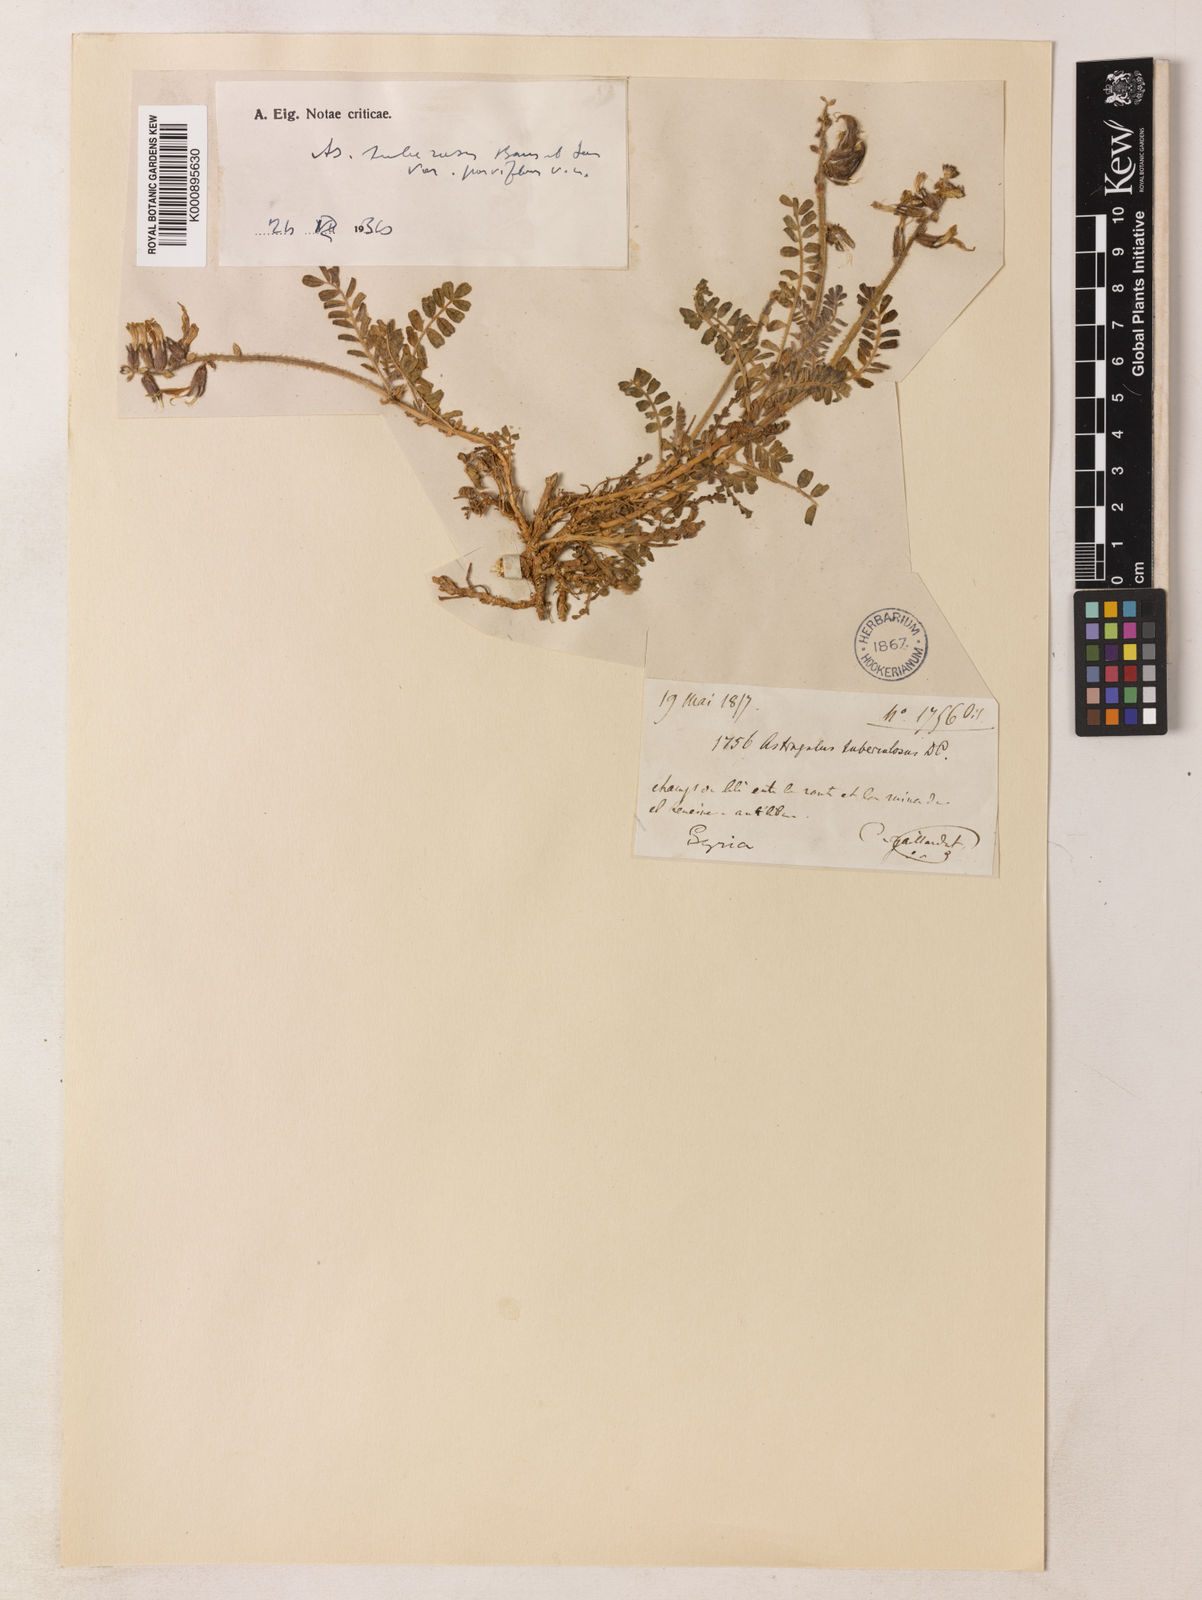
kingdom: Plantae
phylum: Tracheophyta
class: Magnoliopsida
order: Fabales
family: Fabaceae
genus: Astragalus
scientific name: Astragalus suberosus
